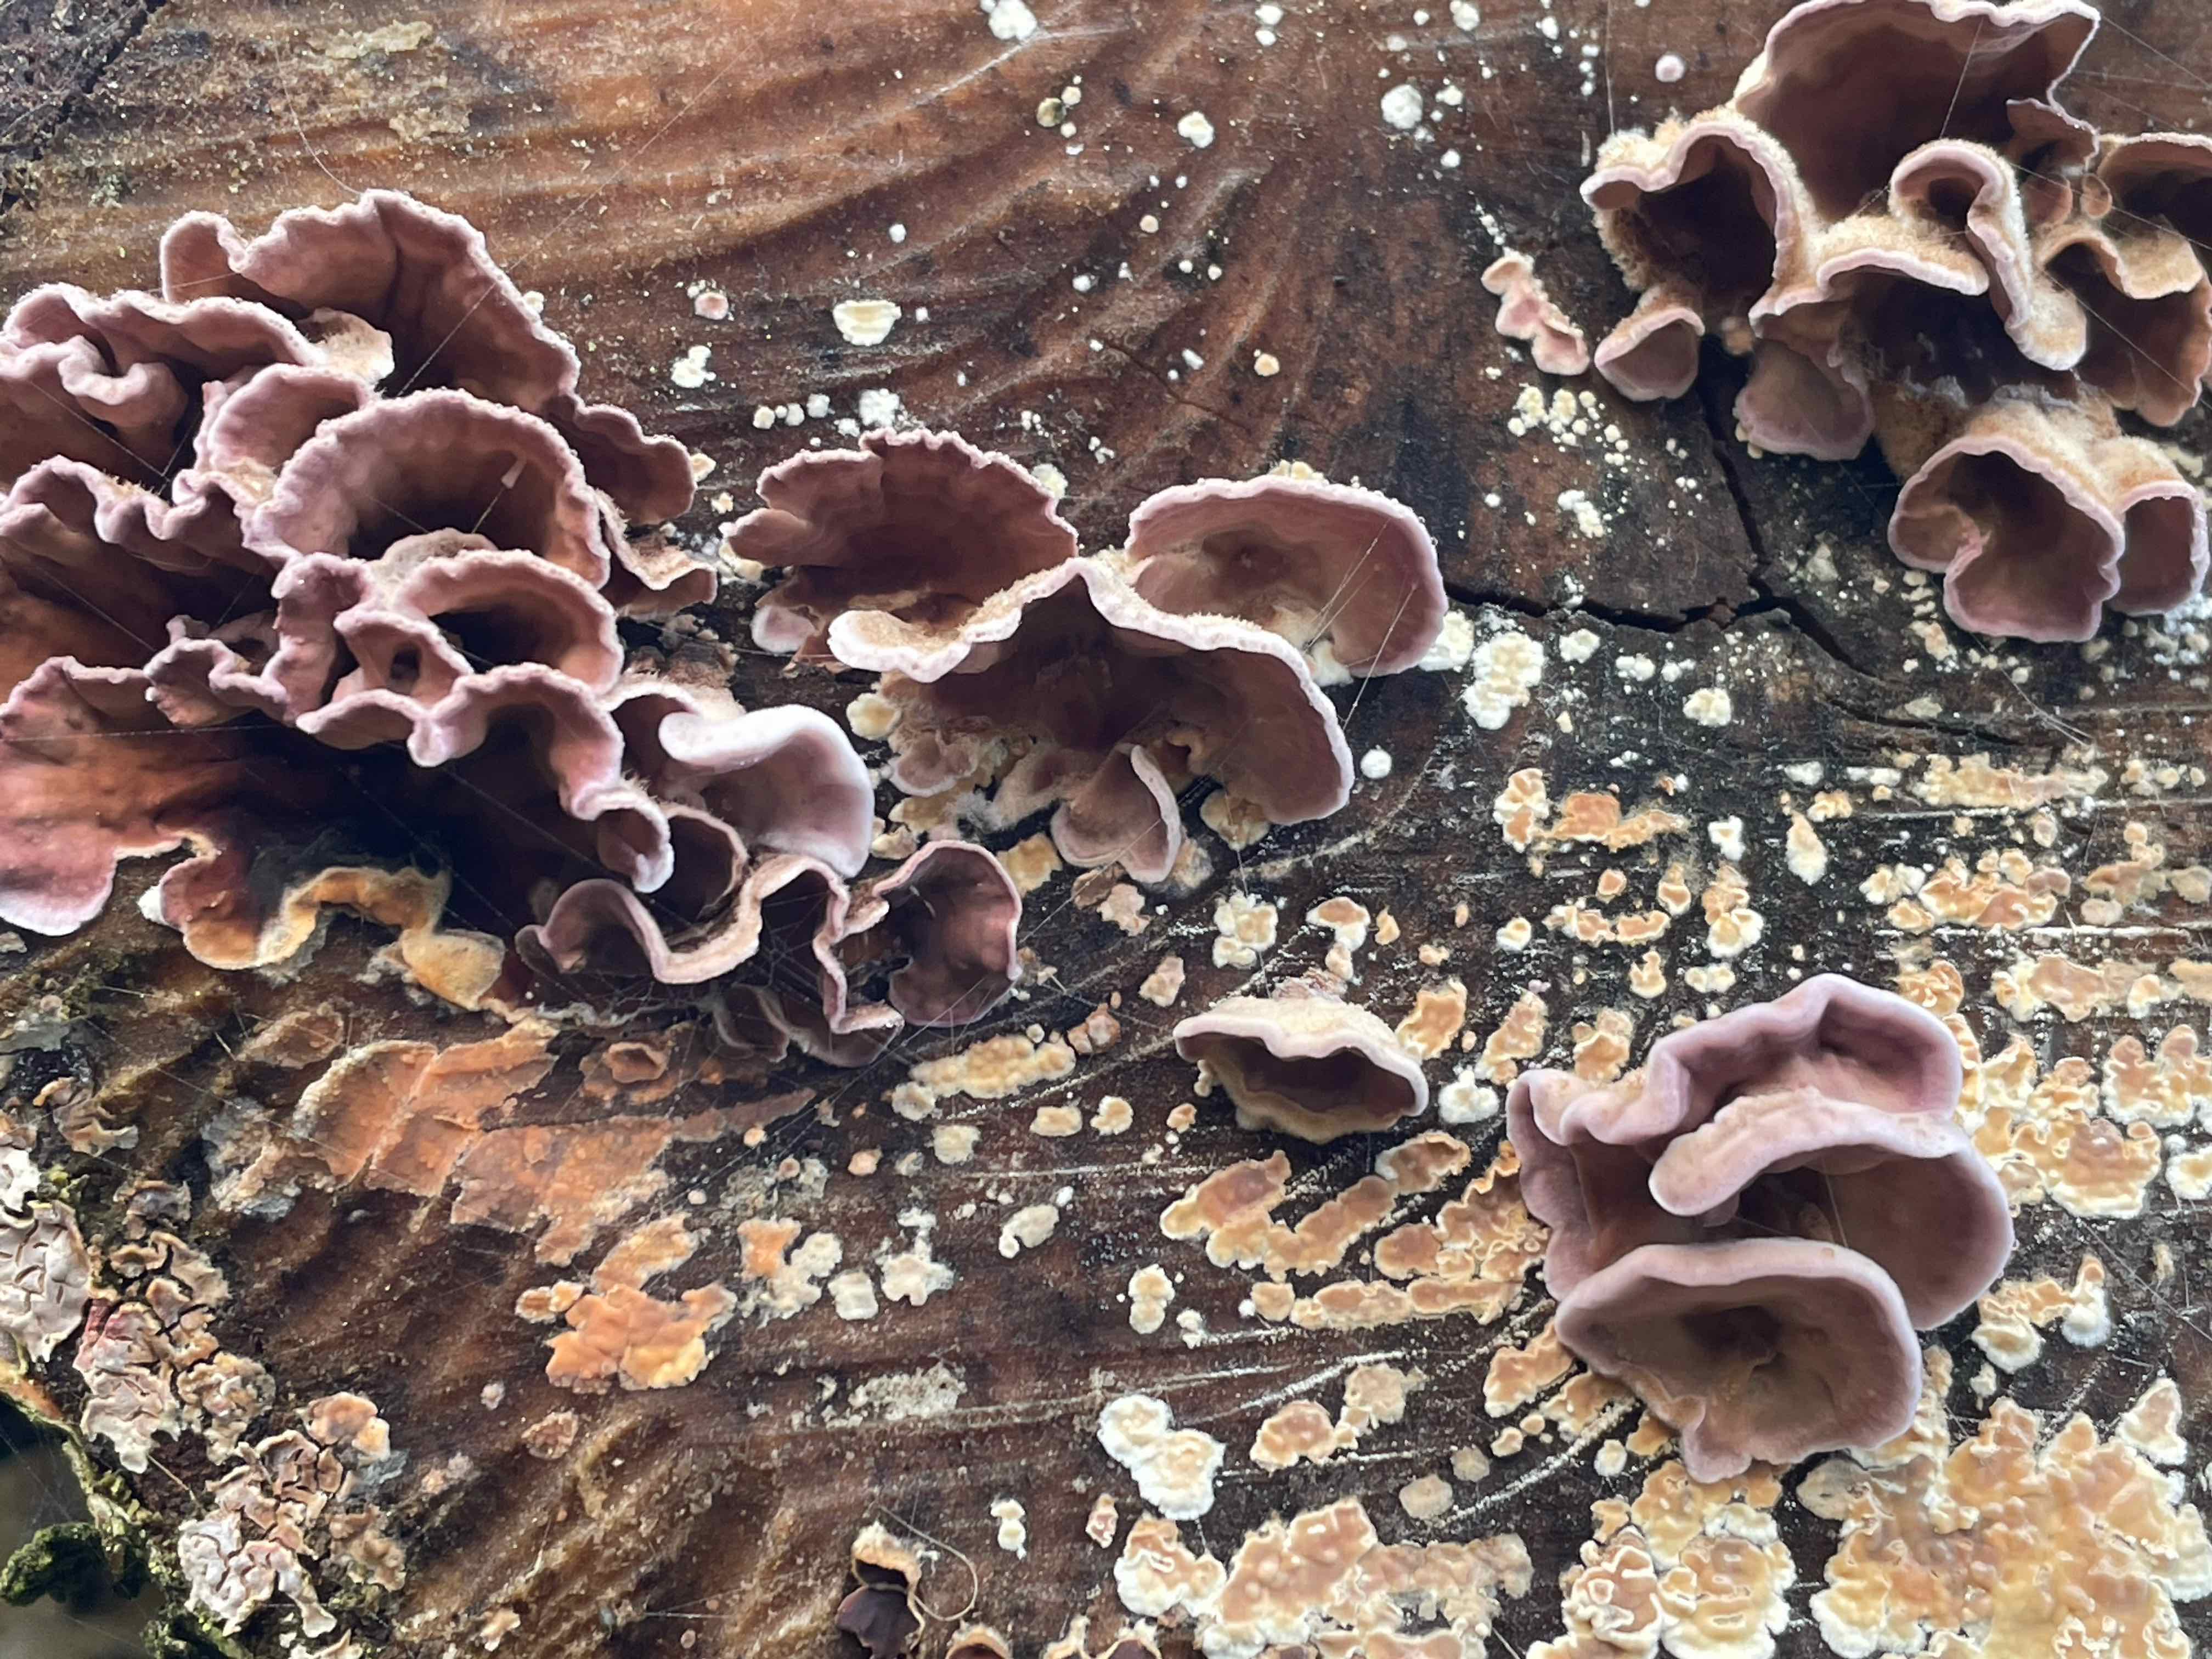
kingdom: Fungi
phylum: Basidiomycota
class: Agaricomycetes
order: Agaricales
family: Cyphellaceae
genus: Chondrostereum
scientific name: Chondrostereum purpureum
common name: purpurlædersvamp
